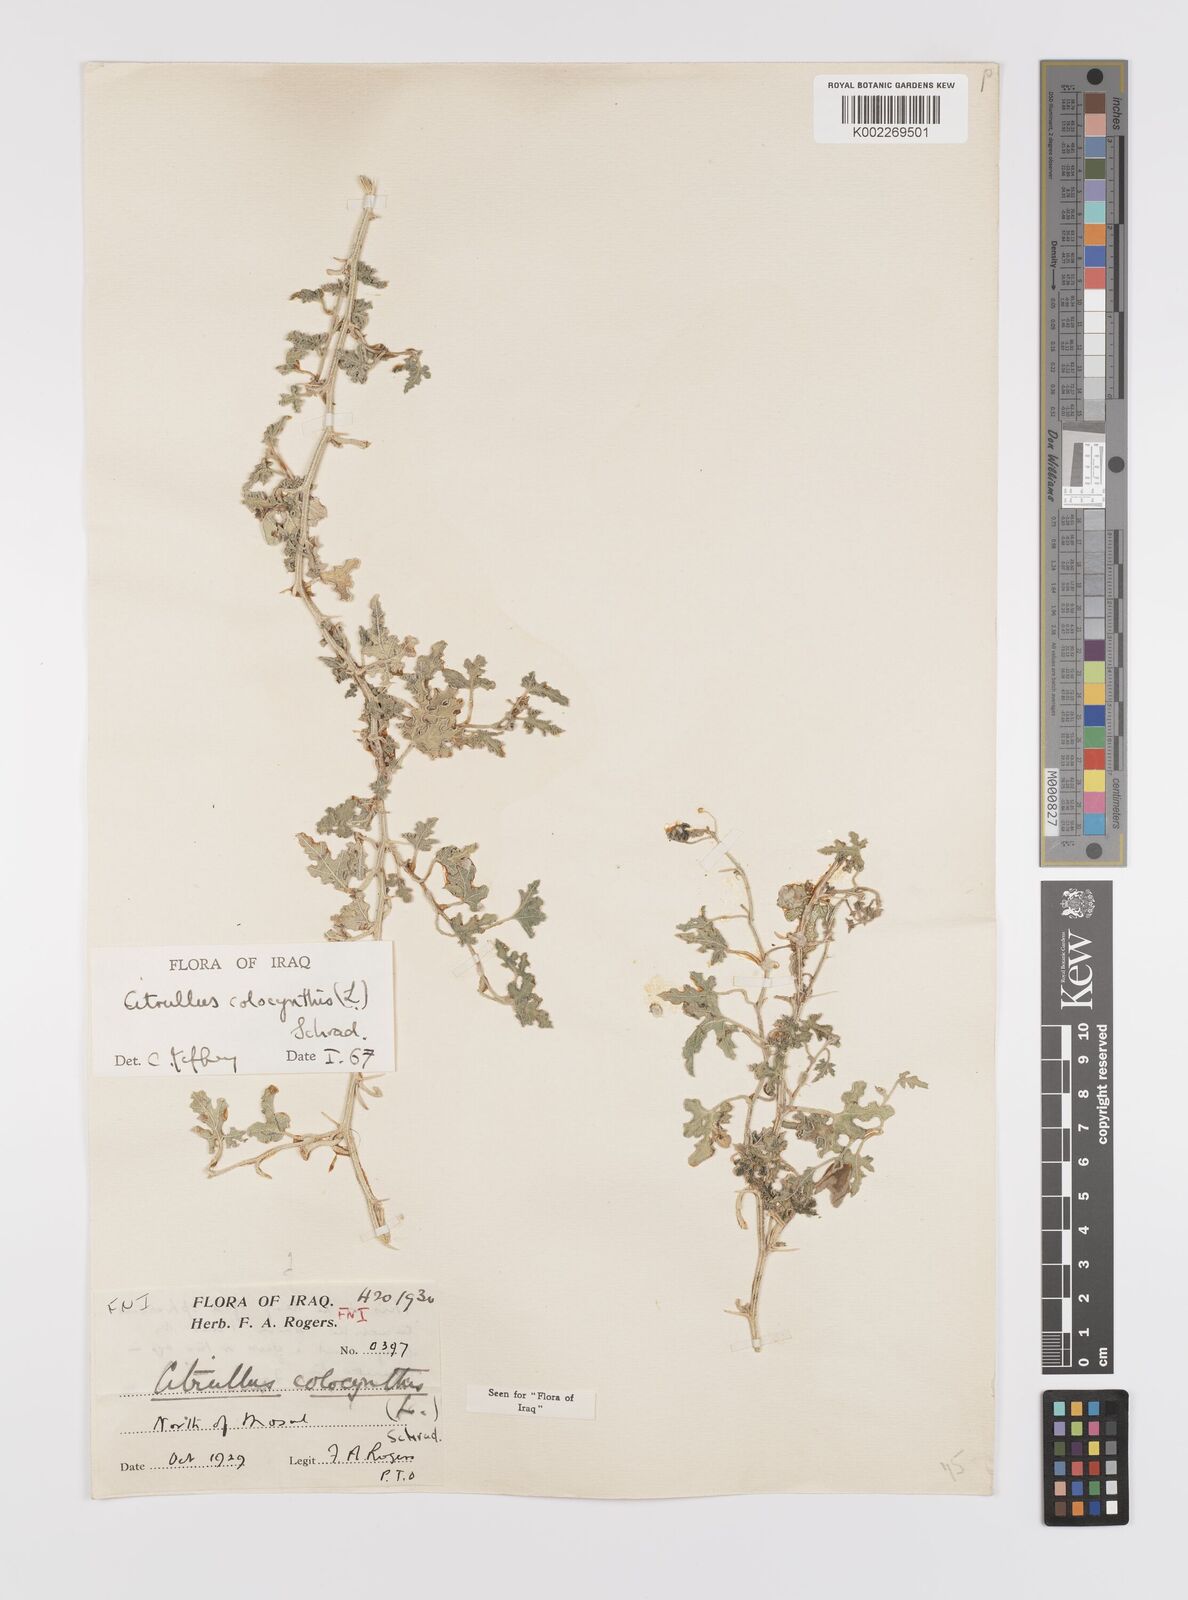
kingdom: Plantae
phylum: Tracheophyta
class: Magnoliopsida
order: Cucurbitales
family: Cucurbitaceae
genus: Citrullus
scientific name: Citrullus colocynthis
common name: Colocynth
